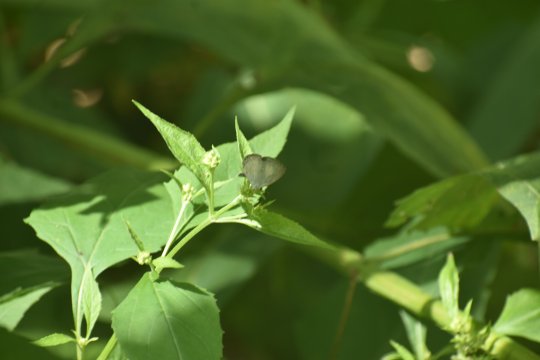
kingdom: Animalia
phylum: Arthropoda
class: Insecta
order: Lepidoptera
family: Lycaenidae
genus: Cyaniris
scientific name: Cyaniris neglecta
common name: Summer Azure
